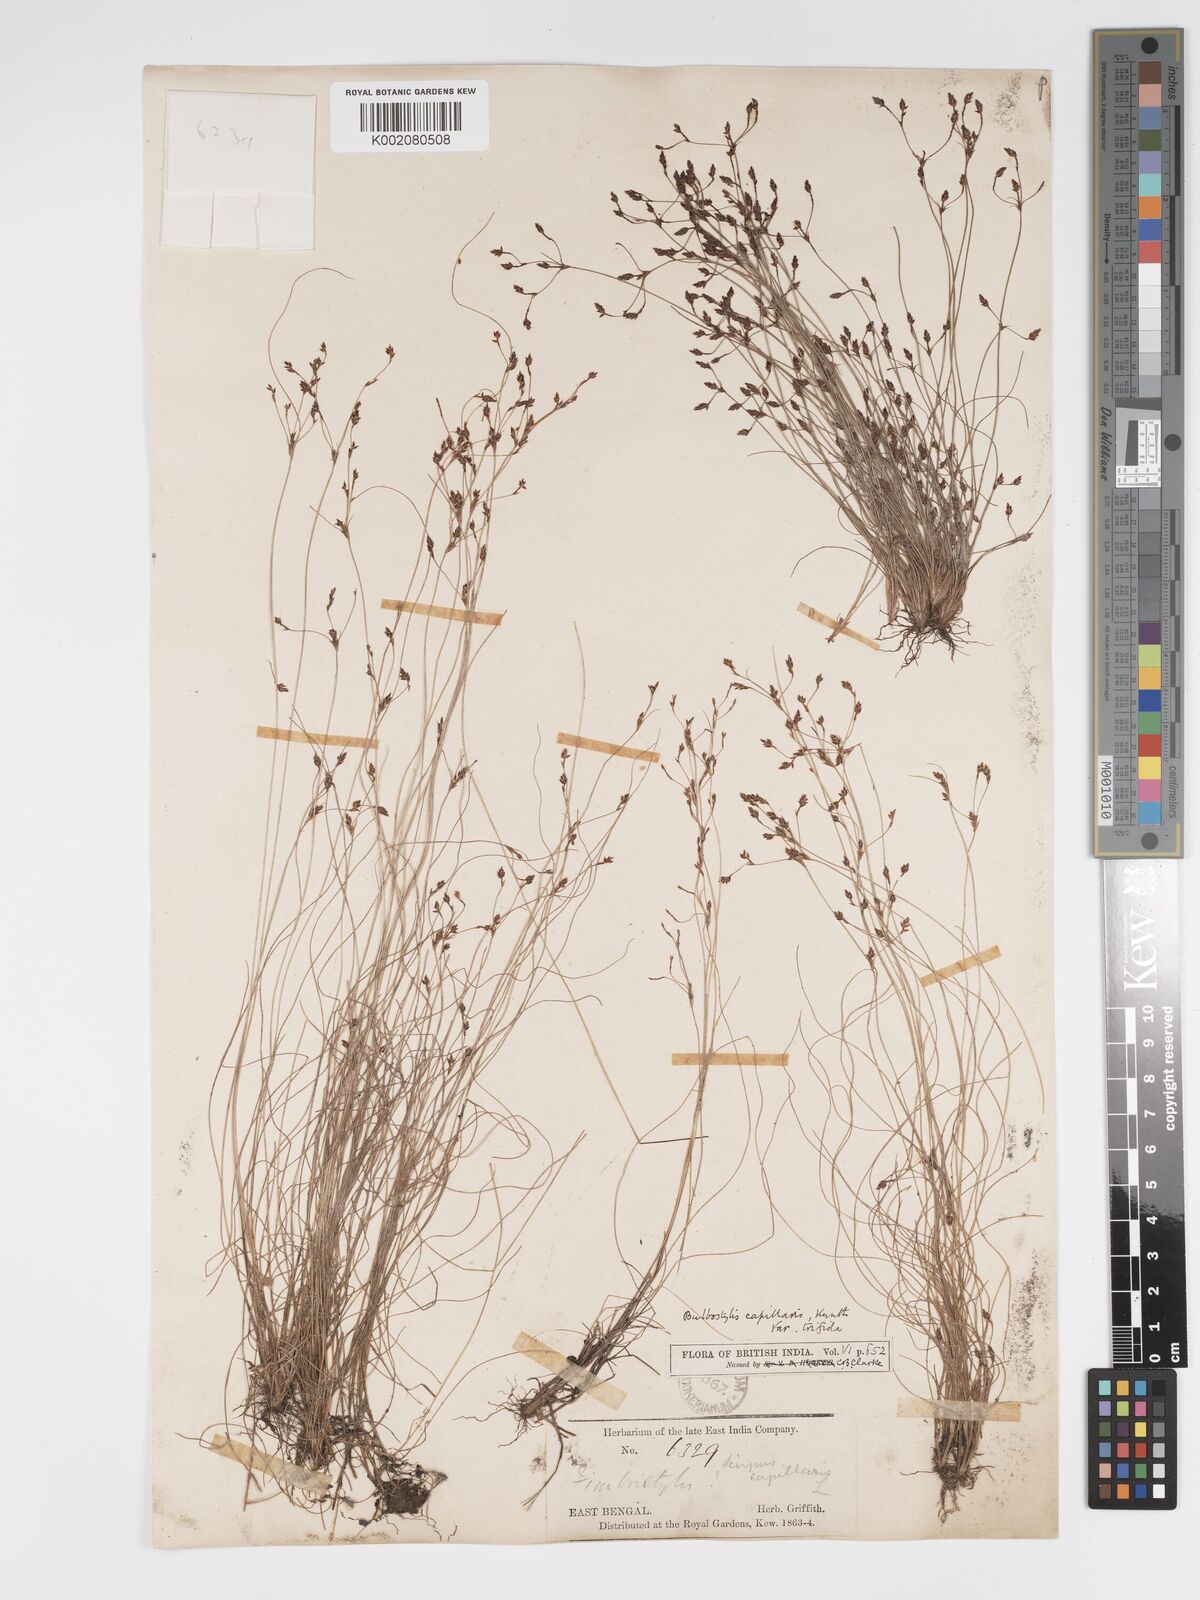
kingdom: Plantae
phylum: Tracheophyta
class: Liliopsida
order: Poales
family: Cyperaceae
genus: Bulbostylis
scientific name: Bulbostylis capillaris
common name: Densetuft hairsedge
